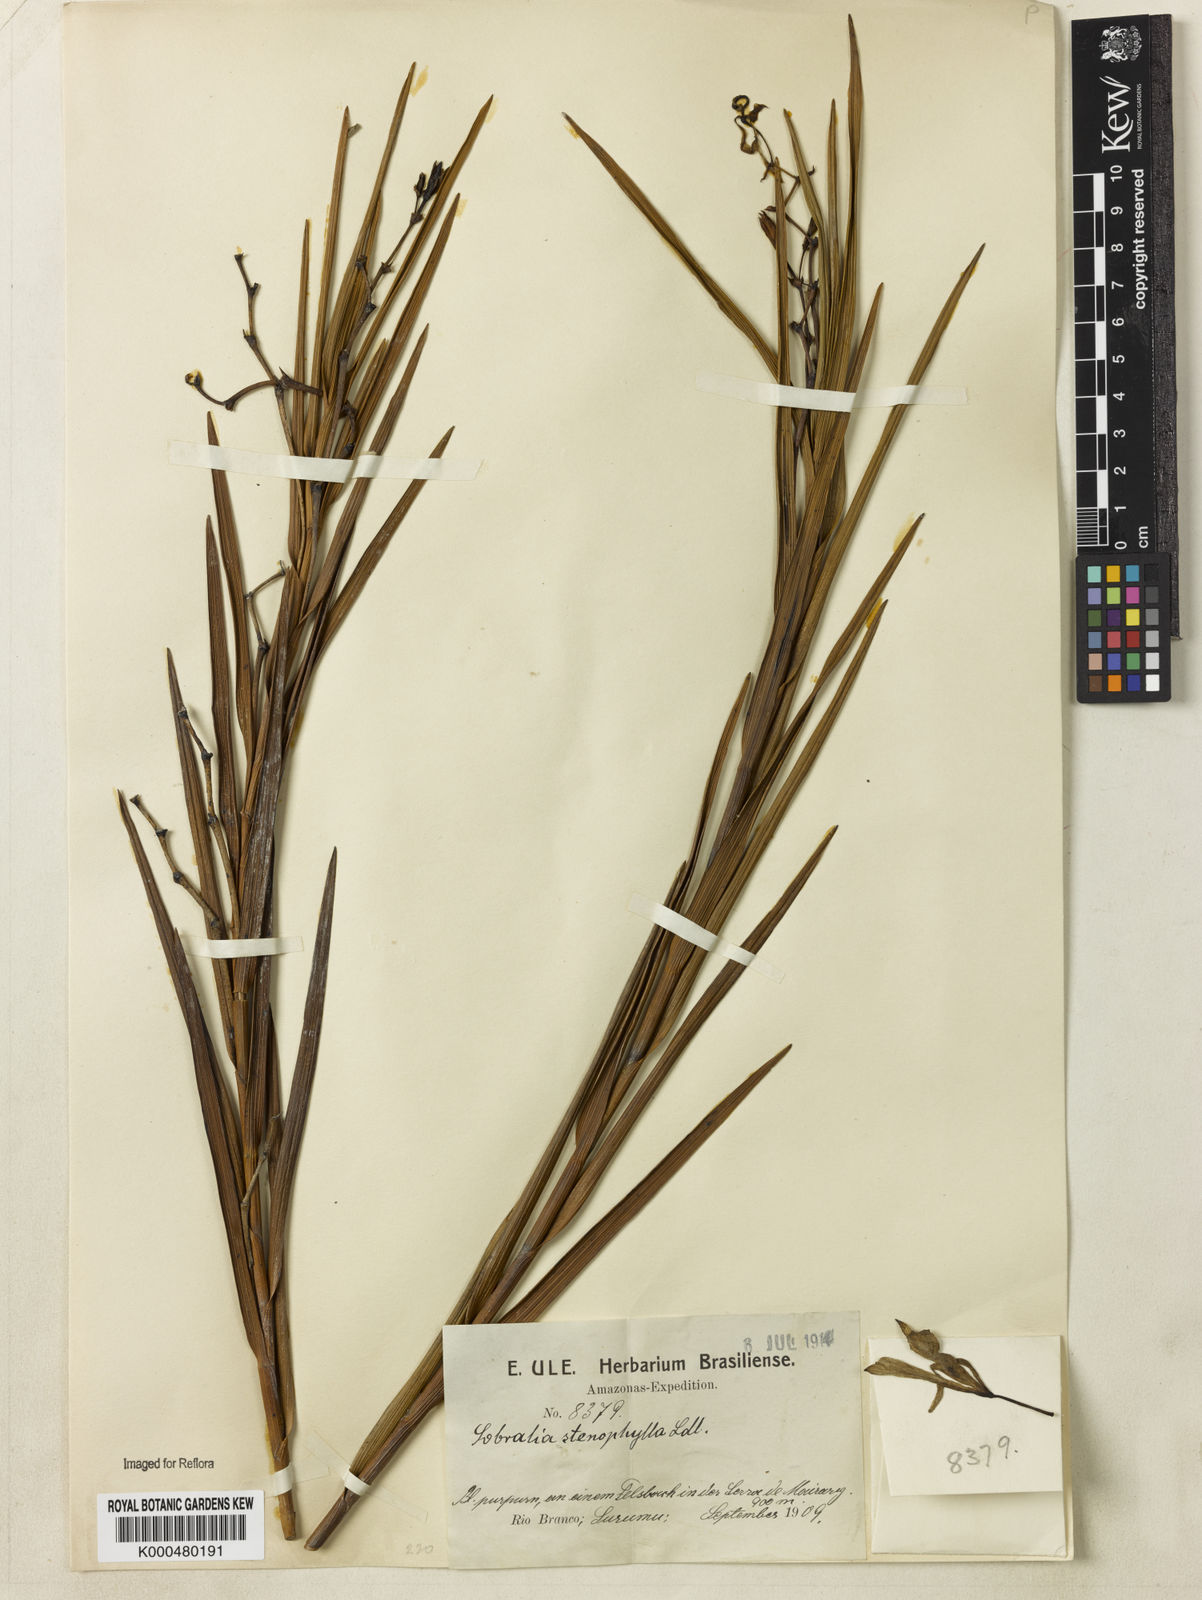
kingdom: Plantae
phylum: Tracheophyta
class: Liliopsida
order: Asparagales
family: Orchidaceae
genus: Sobralia
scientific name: Sobralia stenophylla
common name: Thin leafed sobralia
